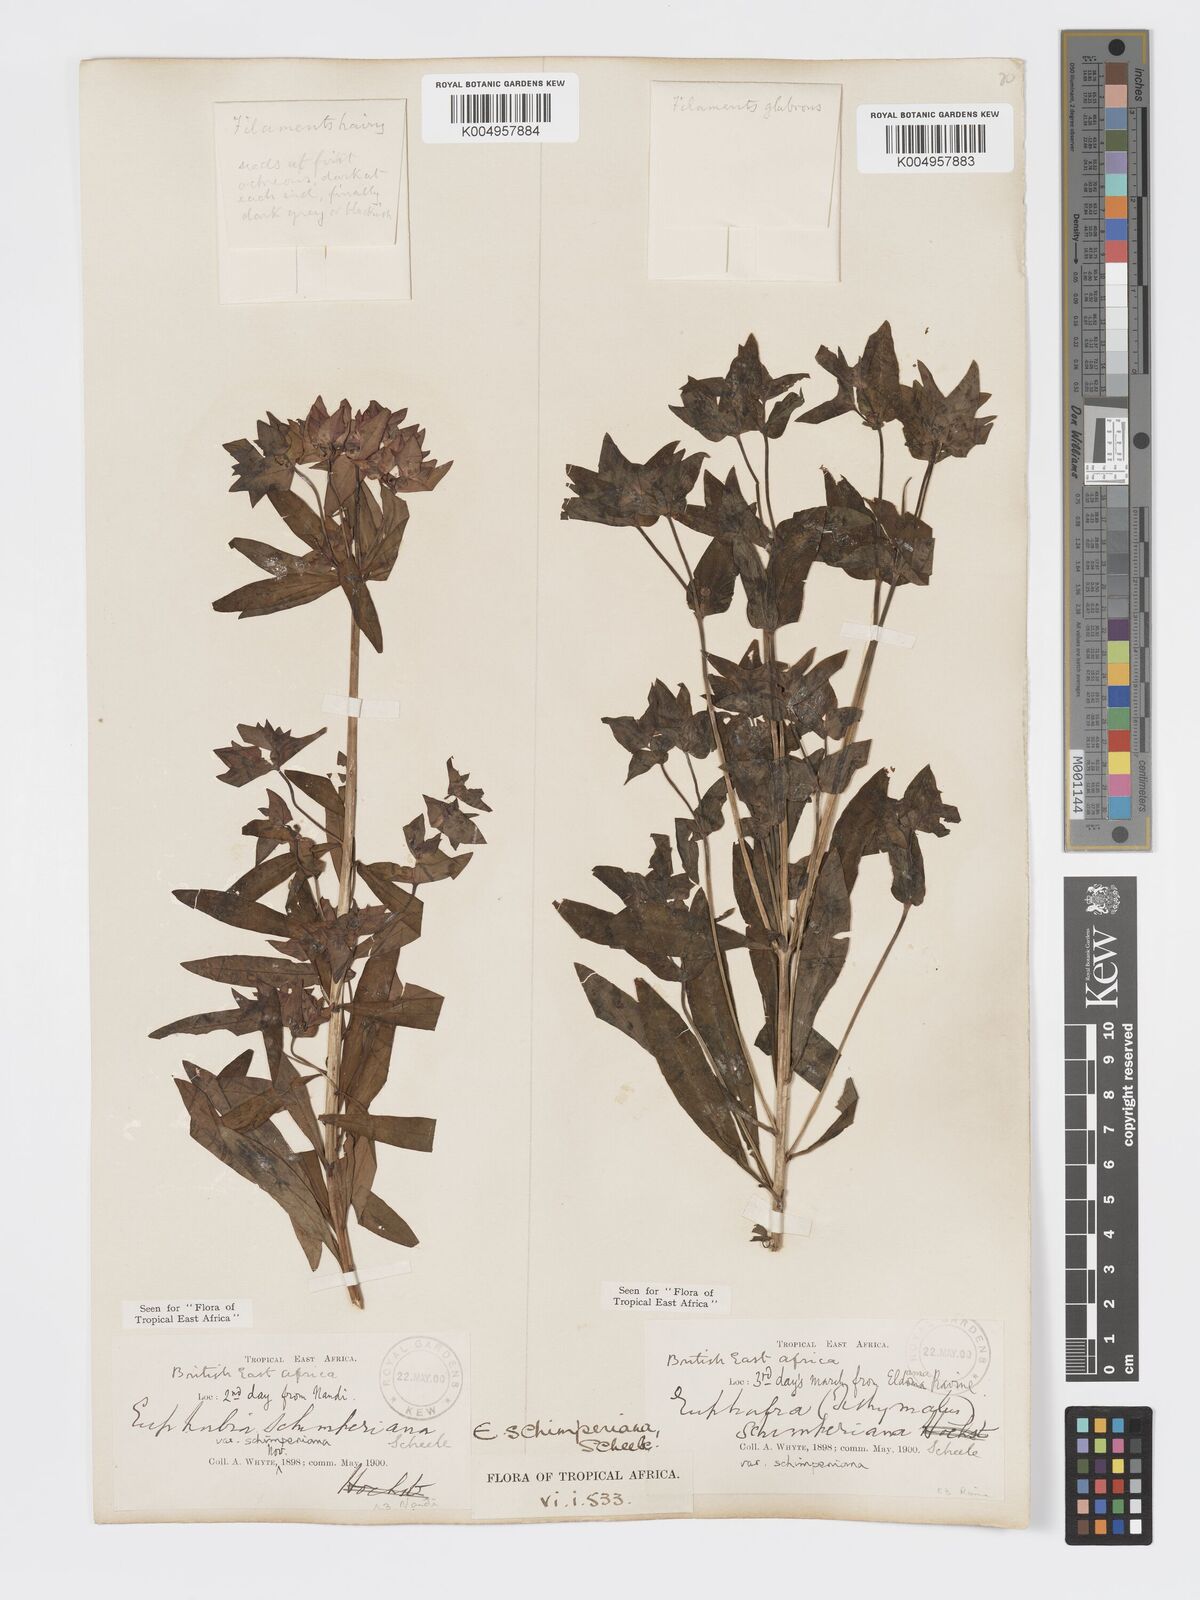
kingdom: Plantae
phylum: Tracheophyta
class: Magnoliopsida
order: Malpighiales
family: Euphorbiaceae
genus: Euphorbia
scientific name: Euphorbia schimperiana
